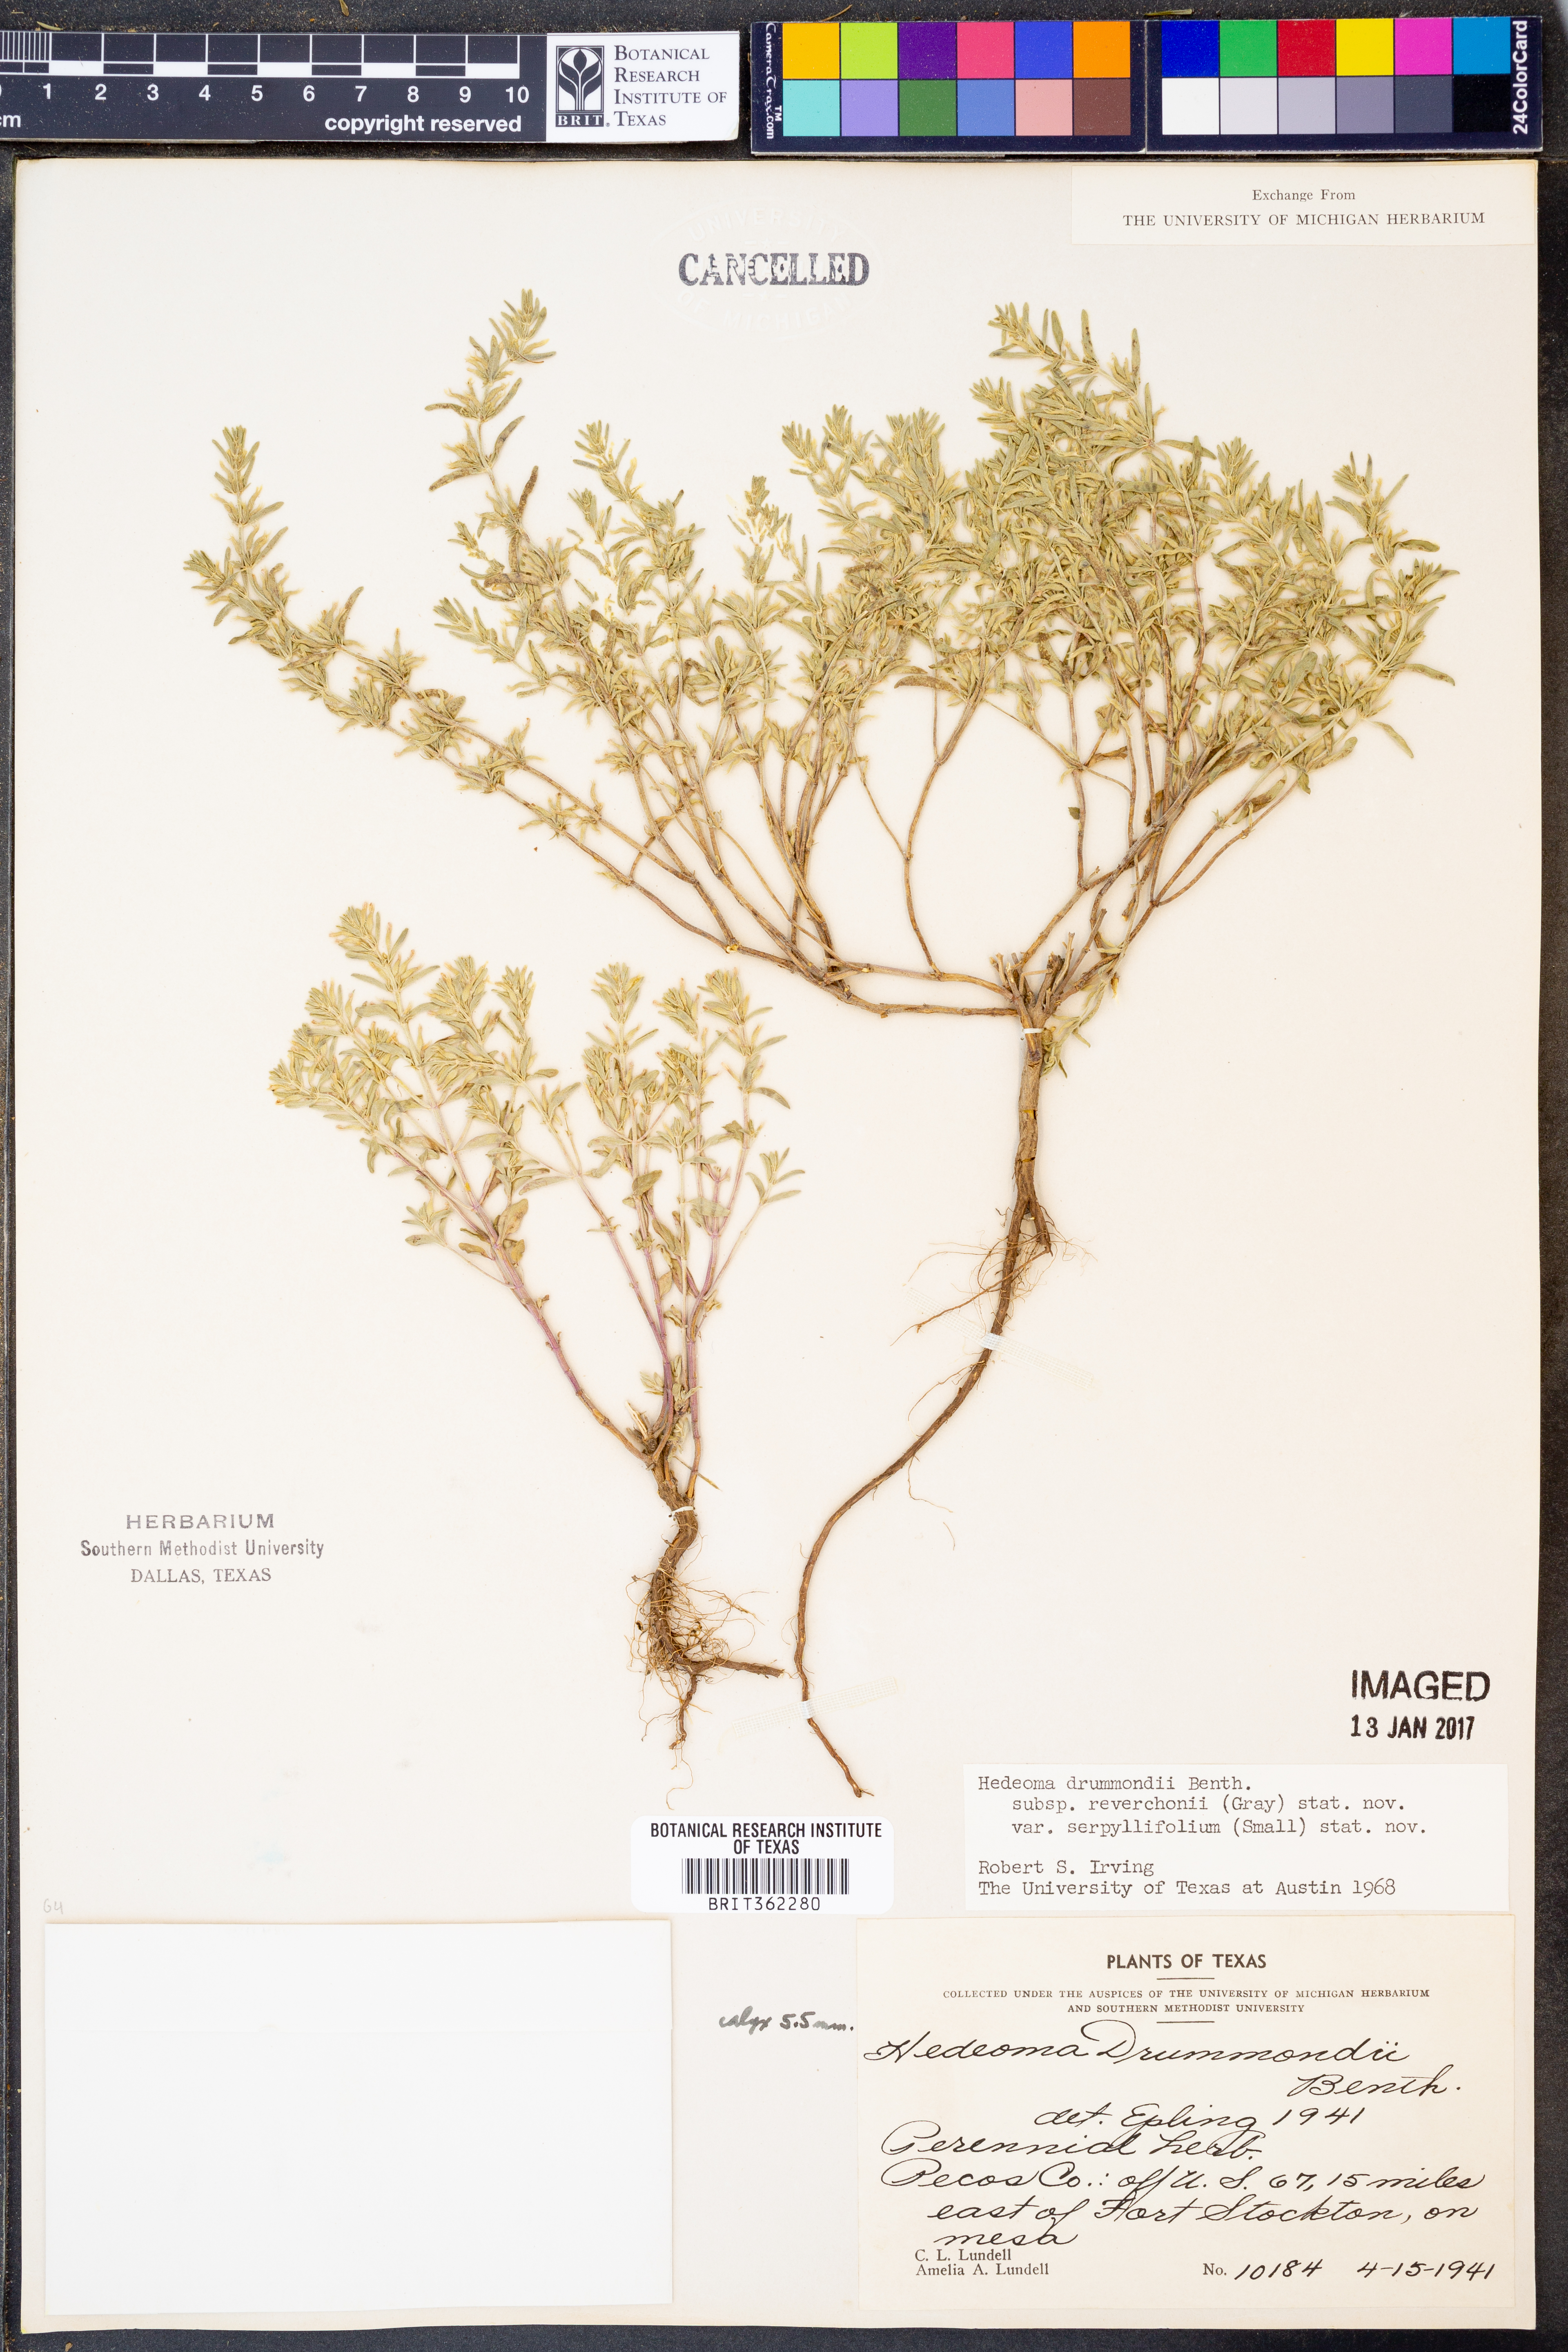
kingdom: Plantae
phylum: Tracheophyta
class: Magnoliopsida
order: Lamiales
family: Lamiaceae
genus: Hedeoma
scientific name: Hedeoma reverchonii
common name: Reverchon's false penny-royal
